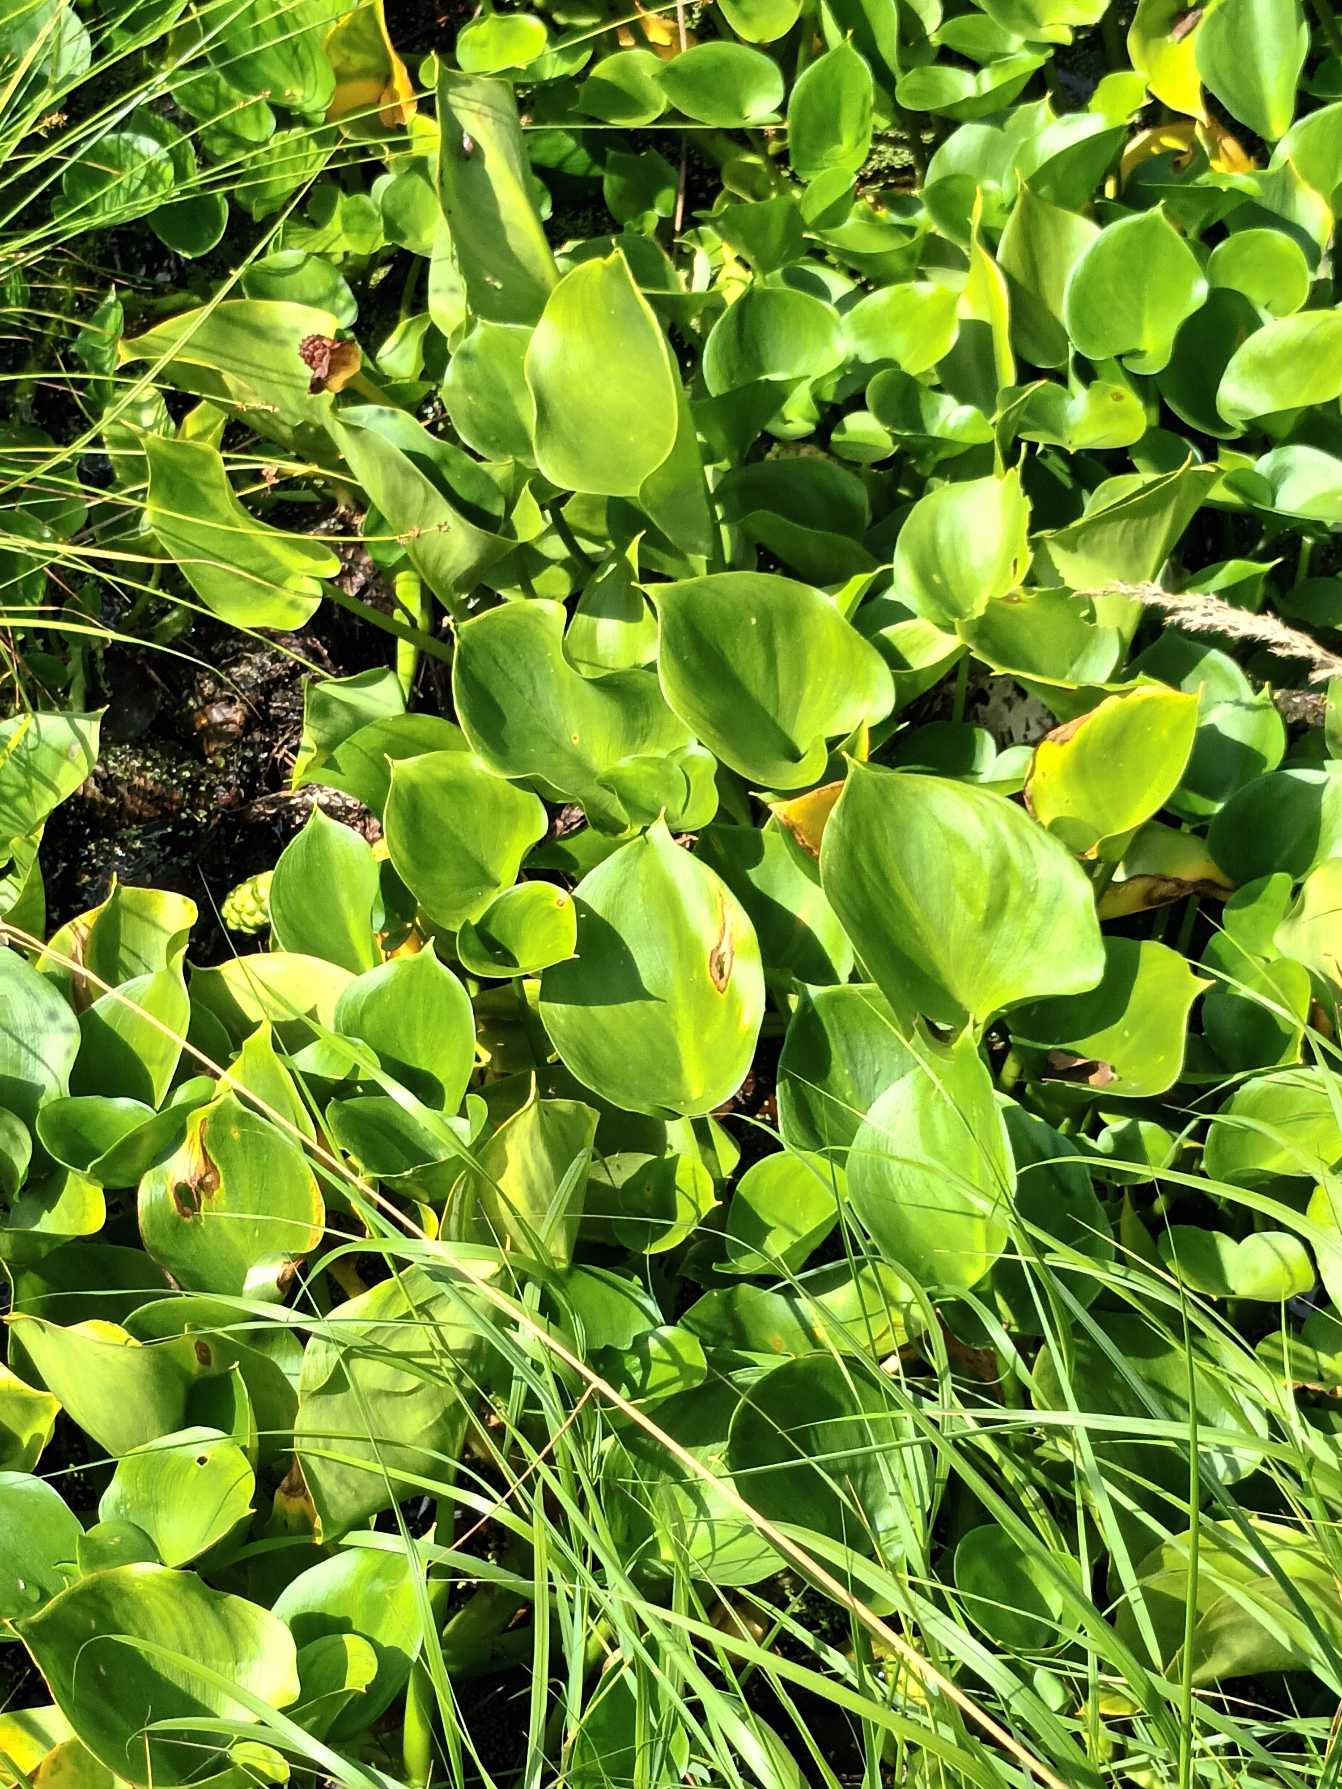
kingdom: Plantae
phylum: Tracheophyta
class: Liliopsida
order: Alismatales
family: Araceae
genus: Calla
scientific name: Calla palustris
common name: Kærmysse
